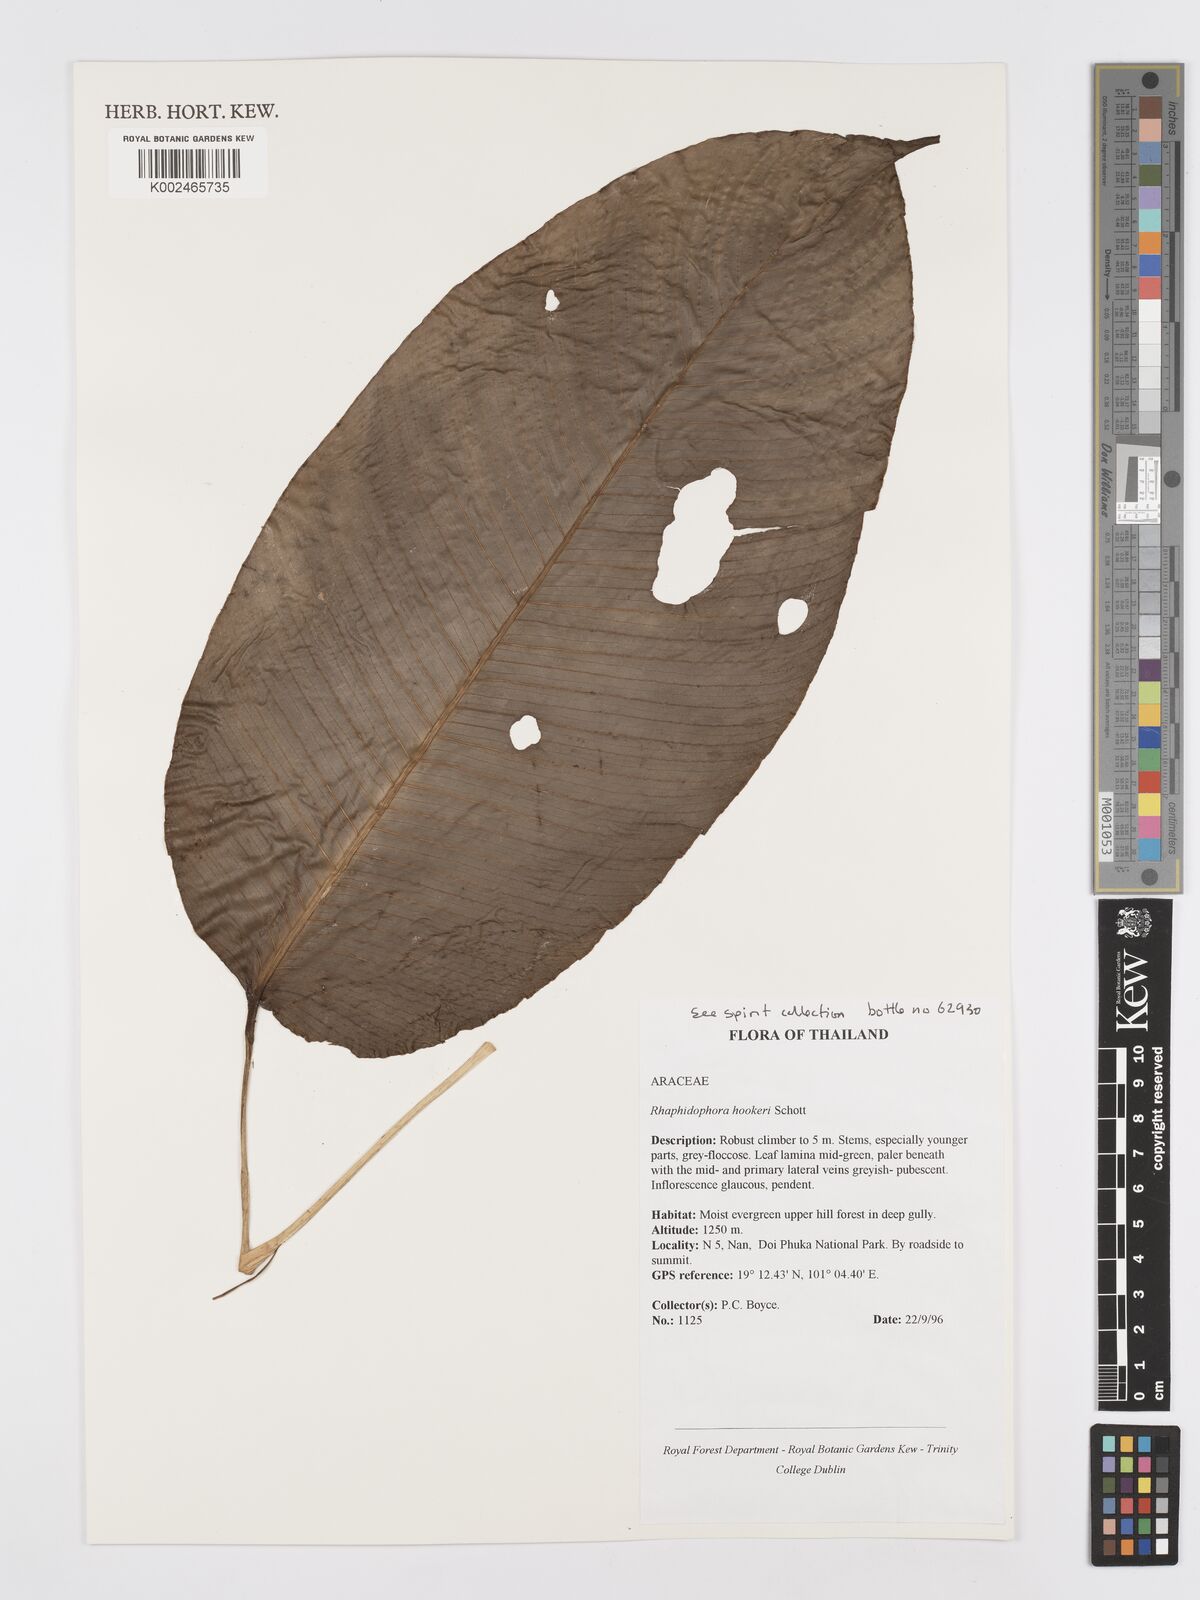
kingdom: Plantae
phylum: Tracheophyta
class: Liliopsida
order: Alismatales
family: Araceae
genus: Rhaphidophora
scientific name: Rhaphidophora hookeri
